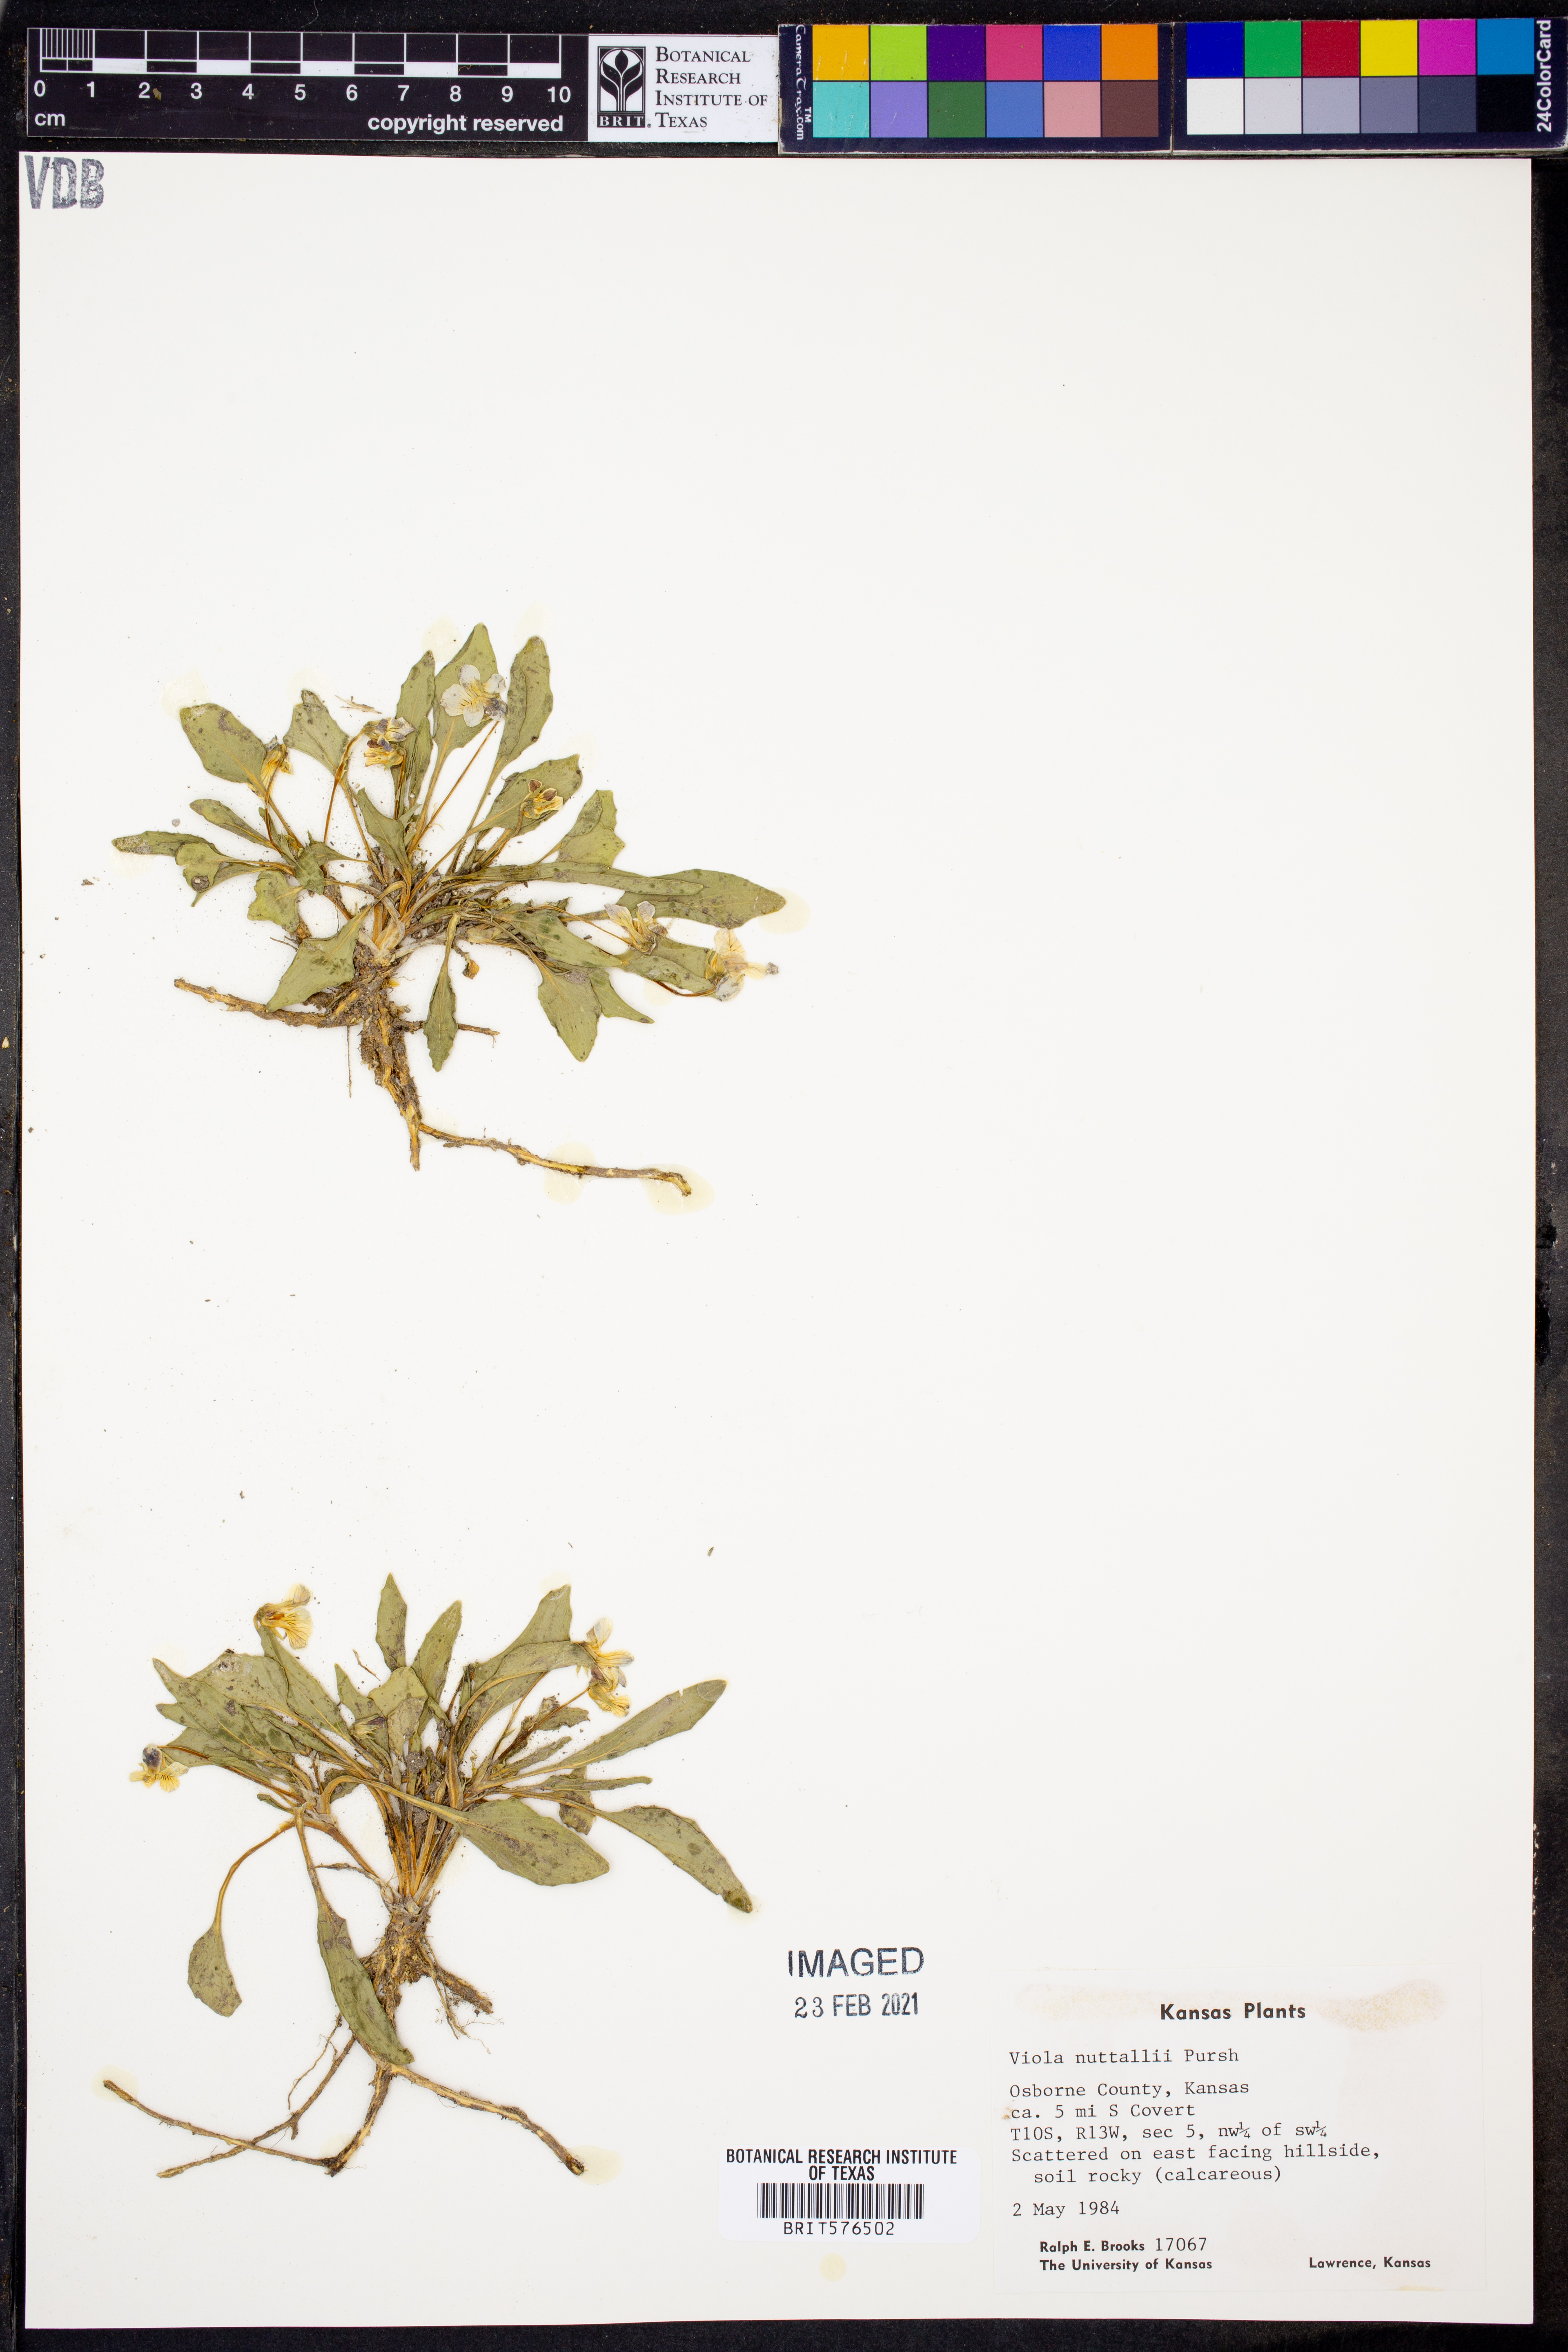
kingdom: Plantae
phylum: Tracheophyta
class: Magnoliopsida
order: Malpighiales
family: Violaceae
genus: Viola
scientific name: Viola nuttallii
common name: Yellow prairie violet
